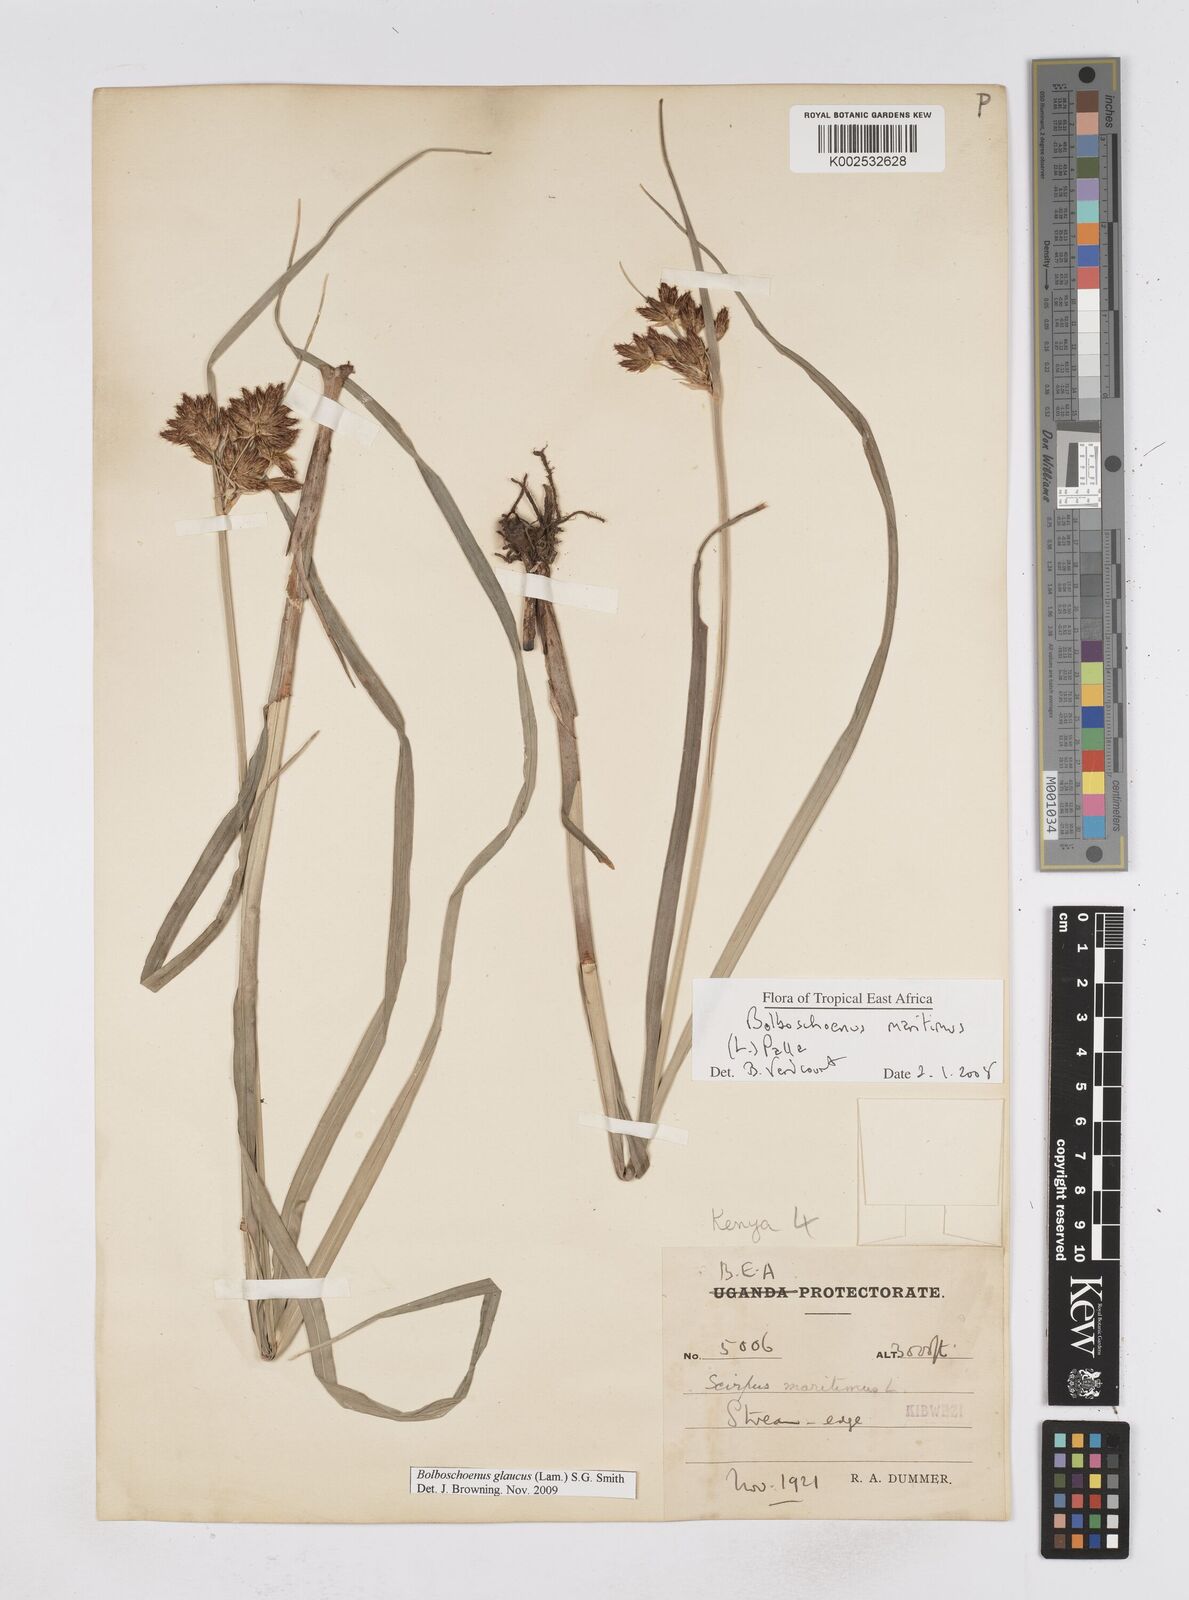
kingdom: Plantae
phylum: Tracheophyta
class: Liliopsida
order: Poales
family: Cyperaceae
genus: Bolboschoenus
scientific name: Bolboschoenus glaucus
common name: Tuberous bulrush
